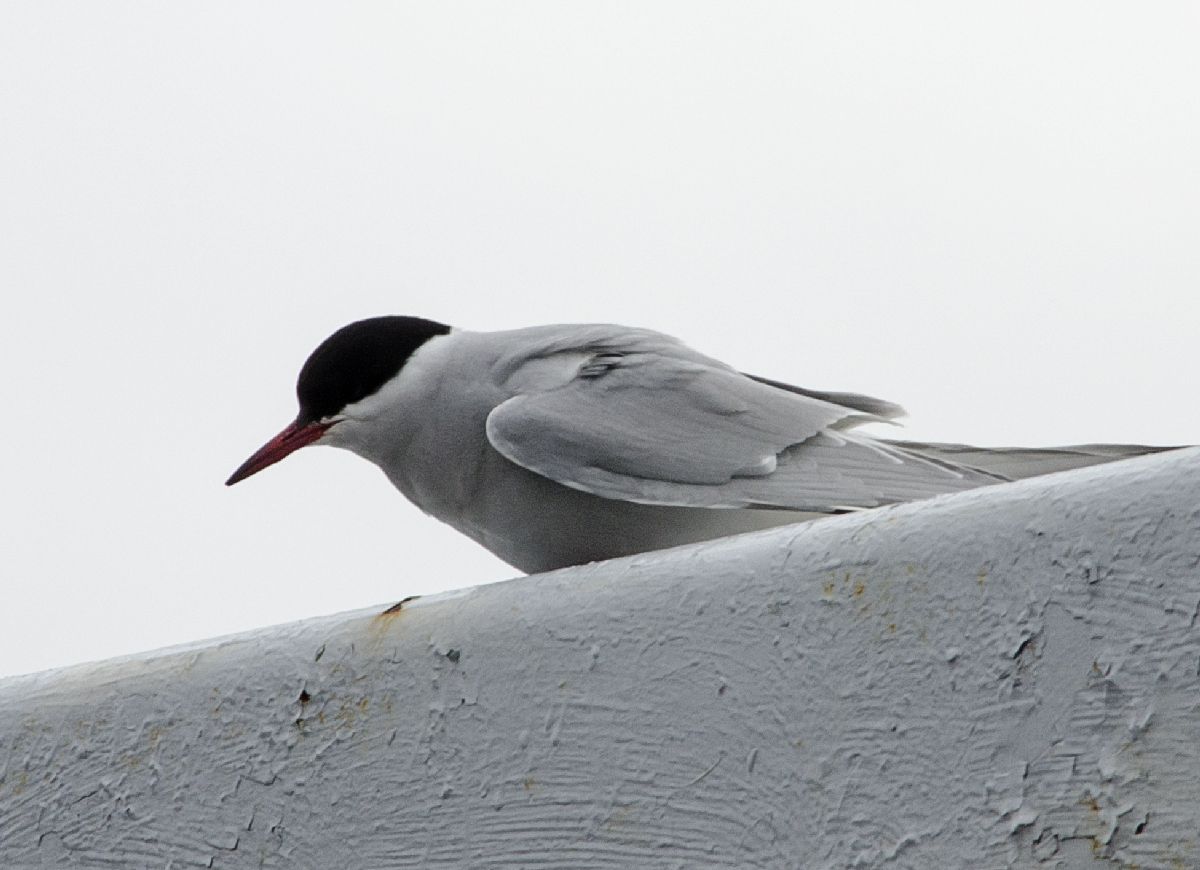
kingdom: Animalia
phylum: Chordata
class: Aves
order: Charadriiformes
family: Laridae
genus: Sterna
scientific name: Sterna paradisaea
